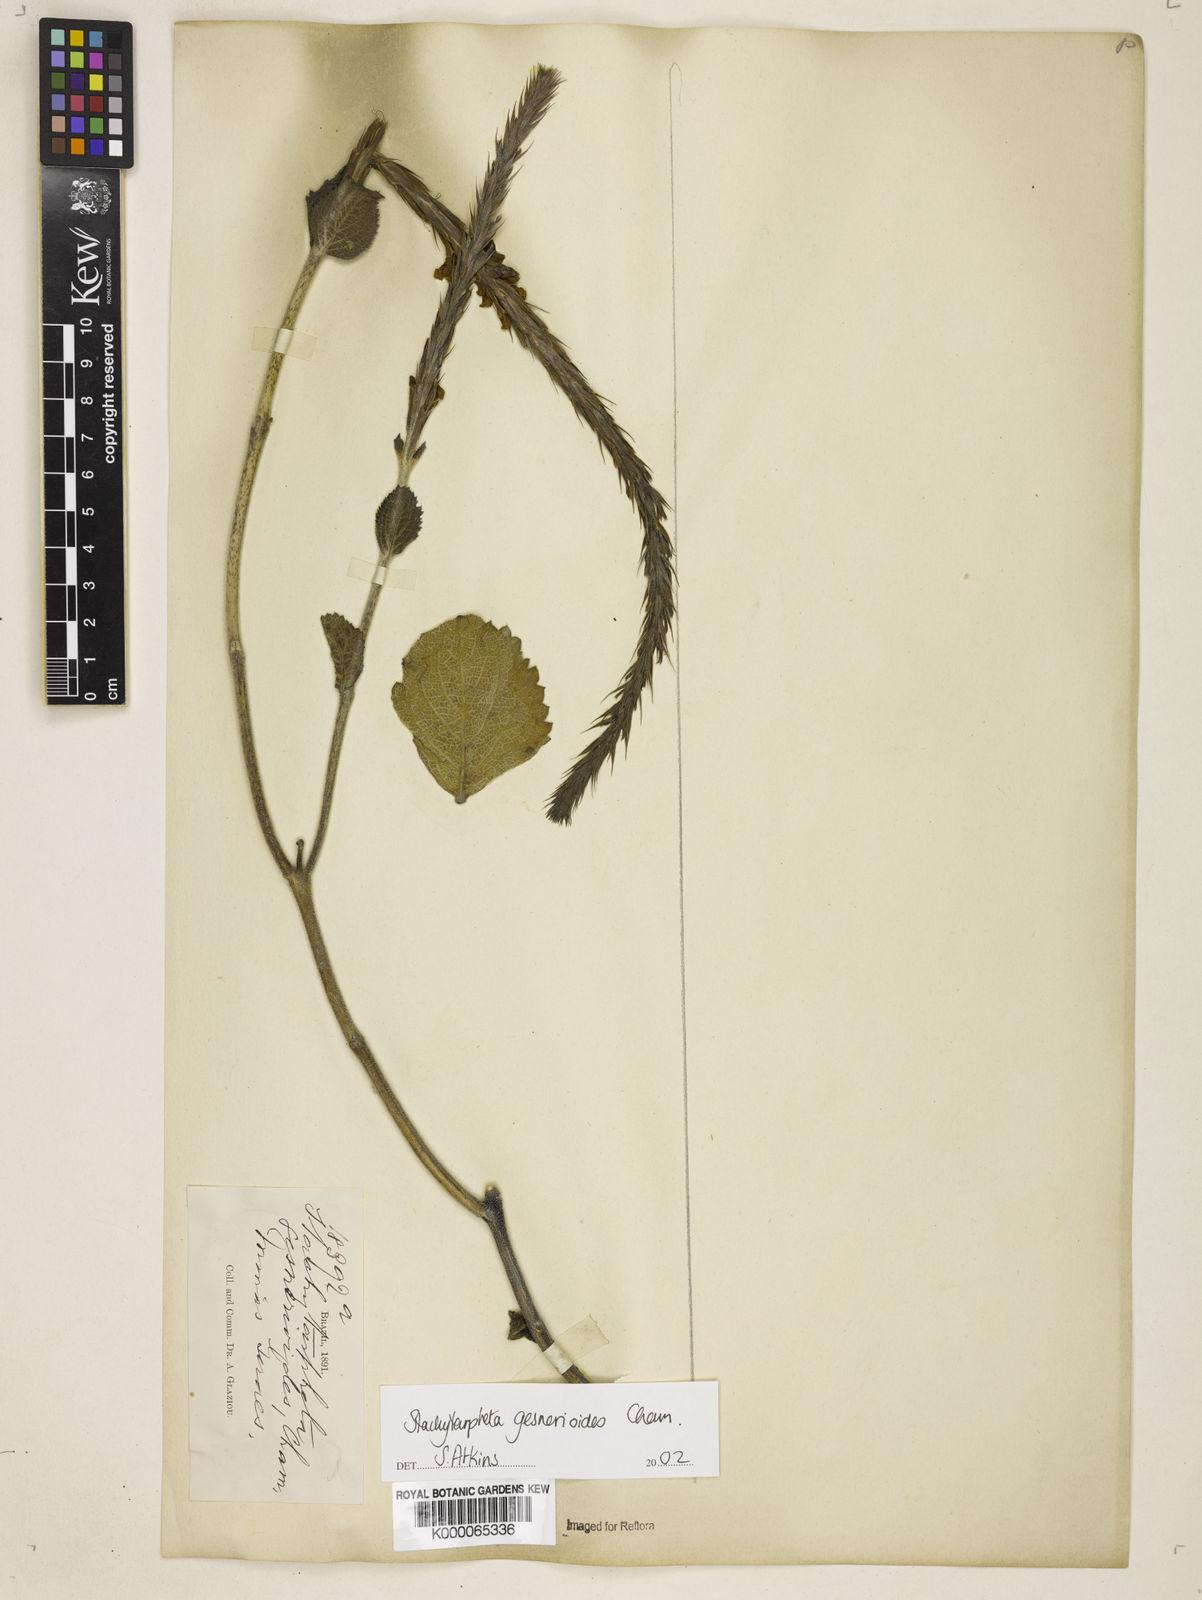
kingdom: Plantae
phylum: Tracheophyta
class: Magnoliopsida
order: Lamiales
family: Verbenaceae
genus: Stachytarpheta
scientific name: Stachytarpheta gesnerioides
